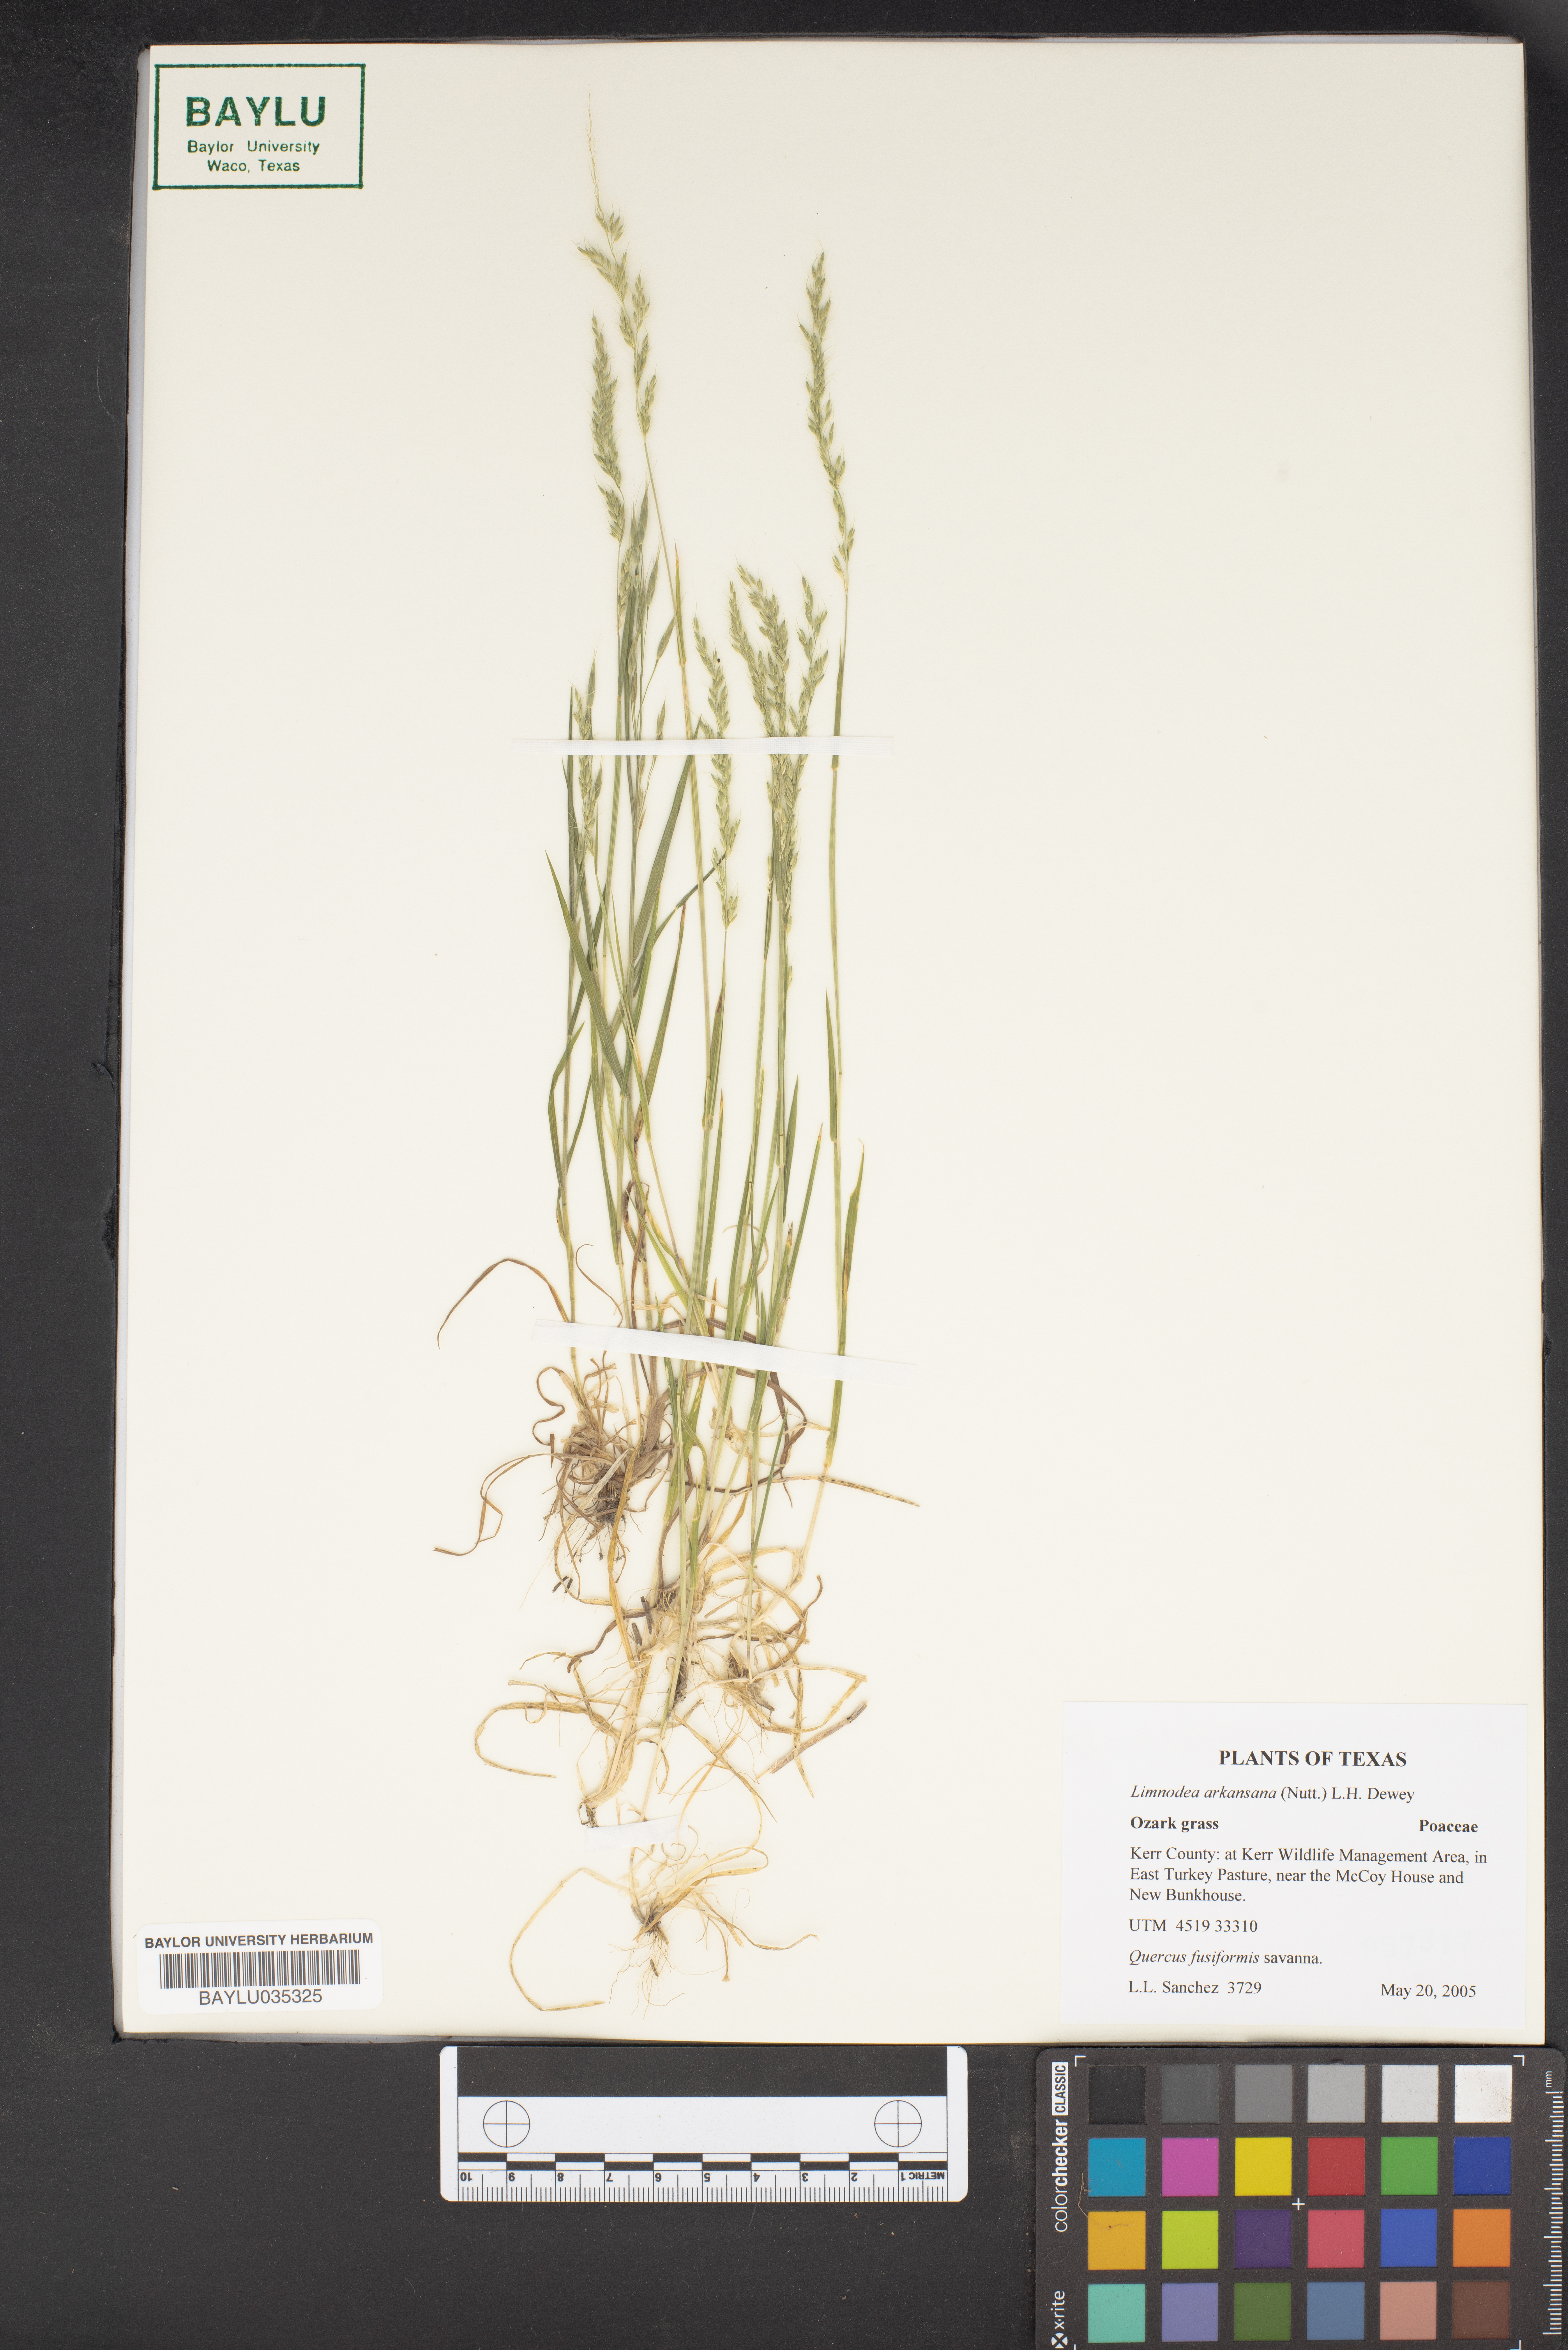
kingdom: Plantae
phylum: Tracheophyta
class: Liliopsida
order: Poales
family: Poaceae
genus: Limnodea
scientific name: Limnodea arkansana
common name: Ozark-grass
